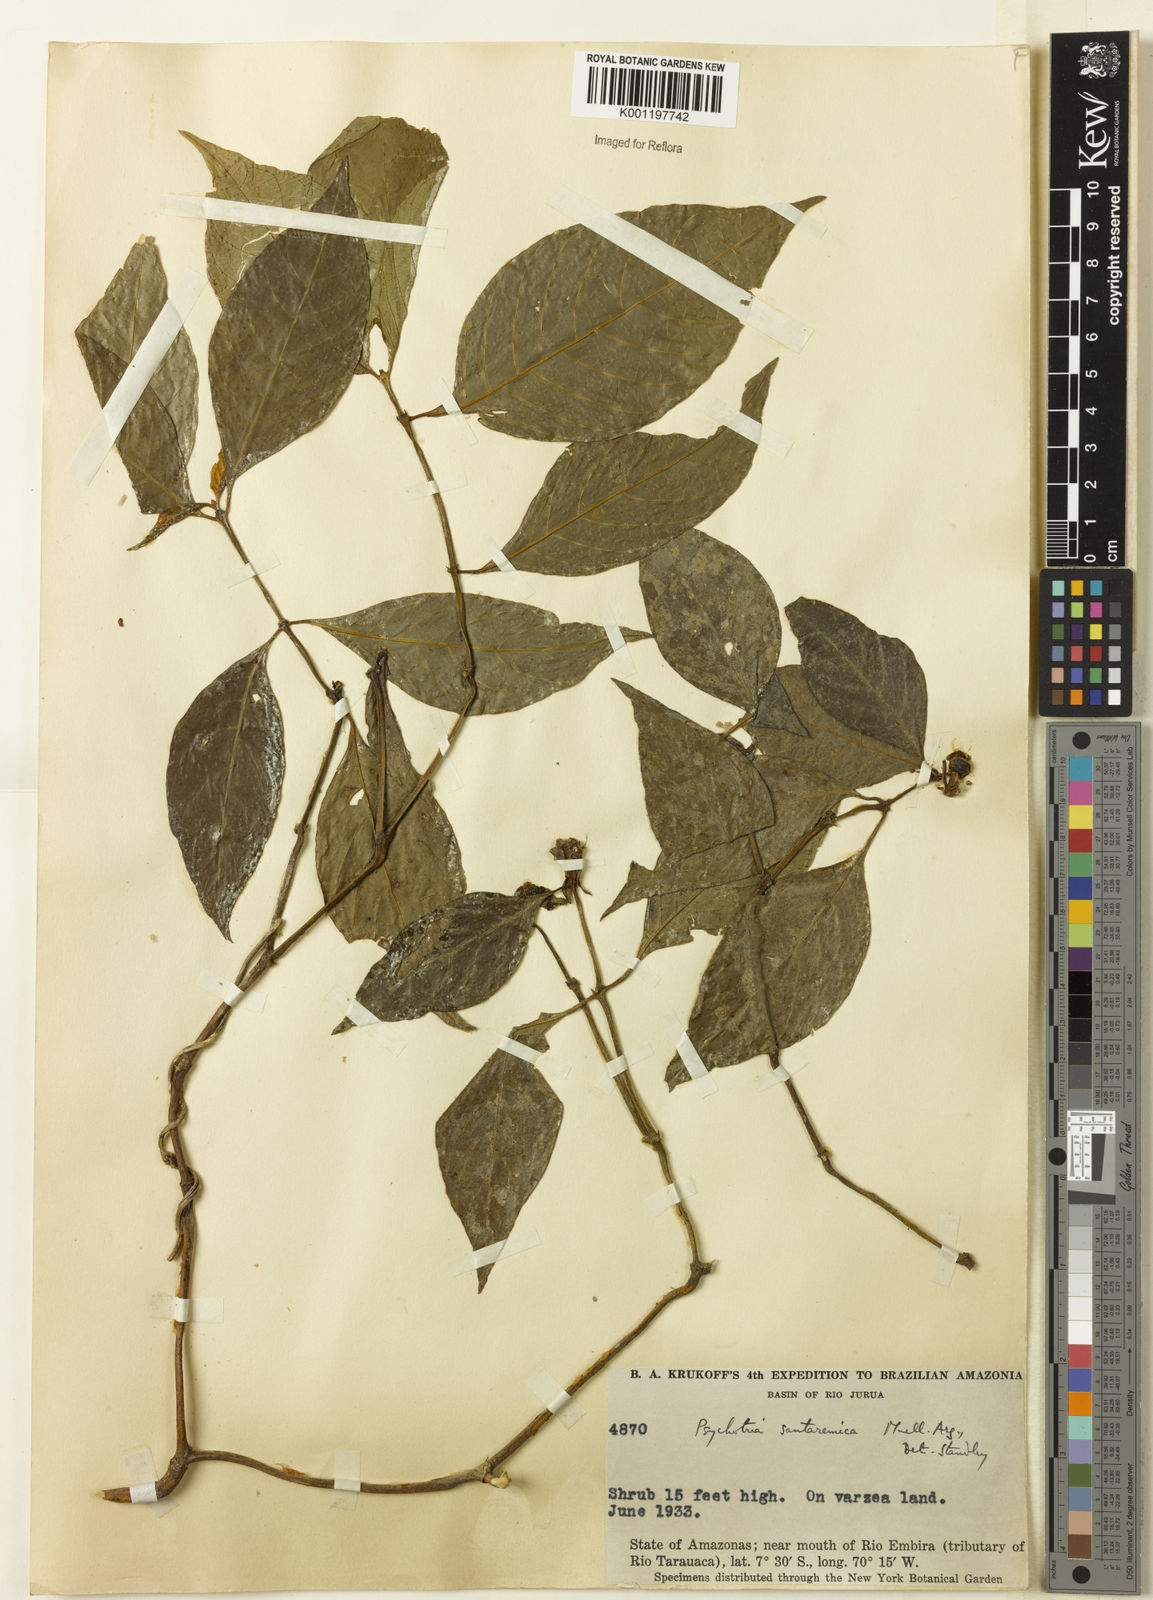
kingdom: Plantae
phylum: Tracheophyta
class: Magnoliopsida
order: Gentianales
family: Rubiaceae
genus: Psychotria
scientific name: Psychotria
